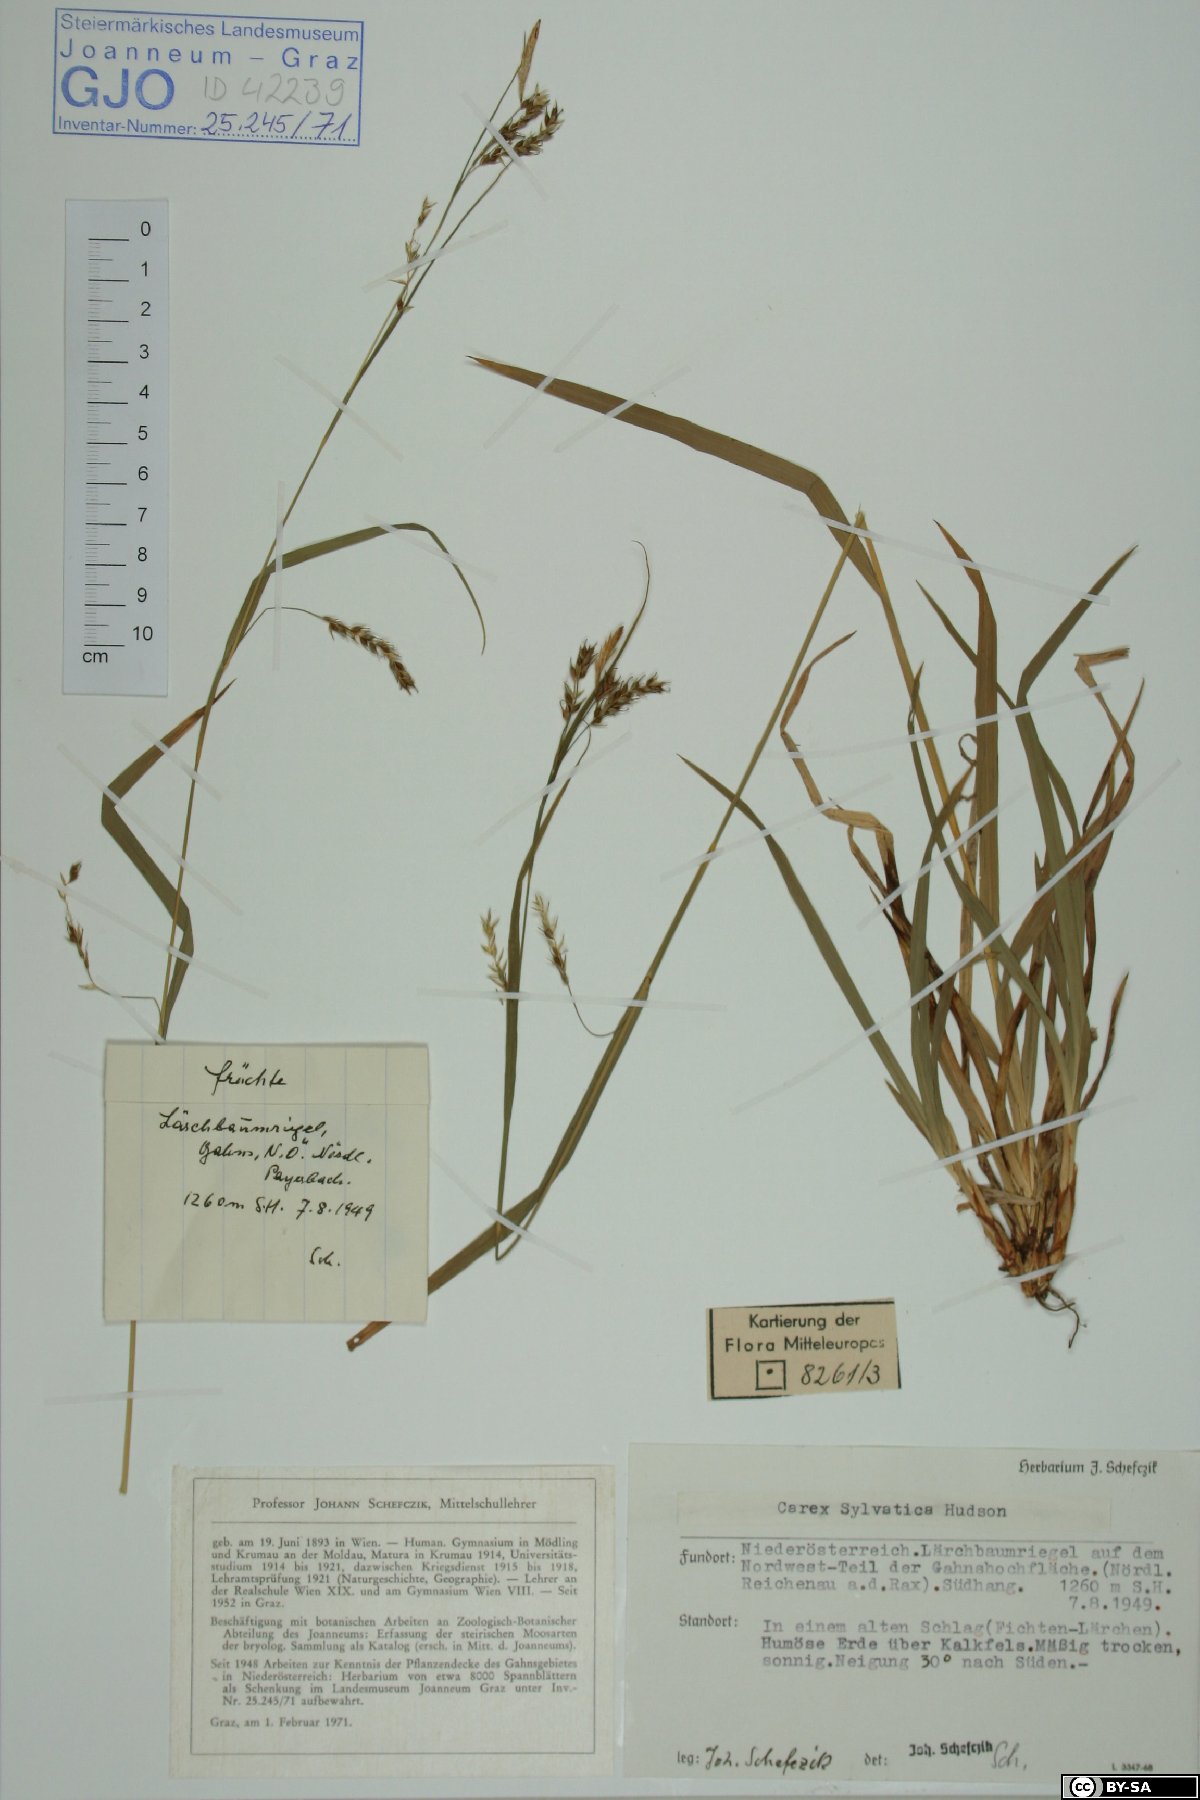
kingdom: Plantae
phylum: Tracheophyta
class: Liliopsida
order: Poales
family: Cyperaceae
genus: Carex
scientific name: Carex sylvatica
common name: Wood-sedge
